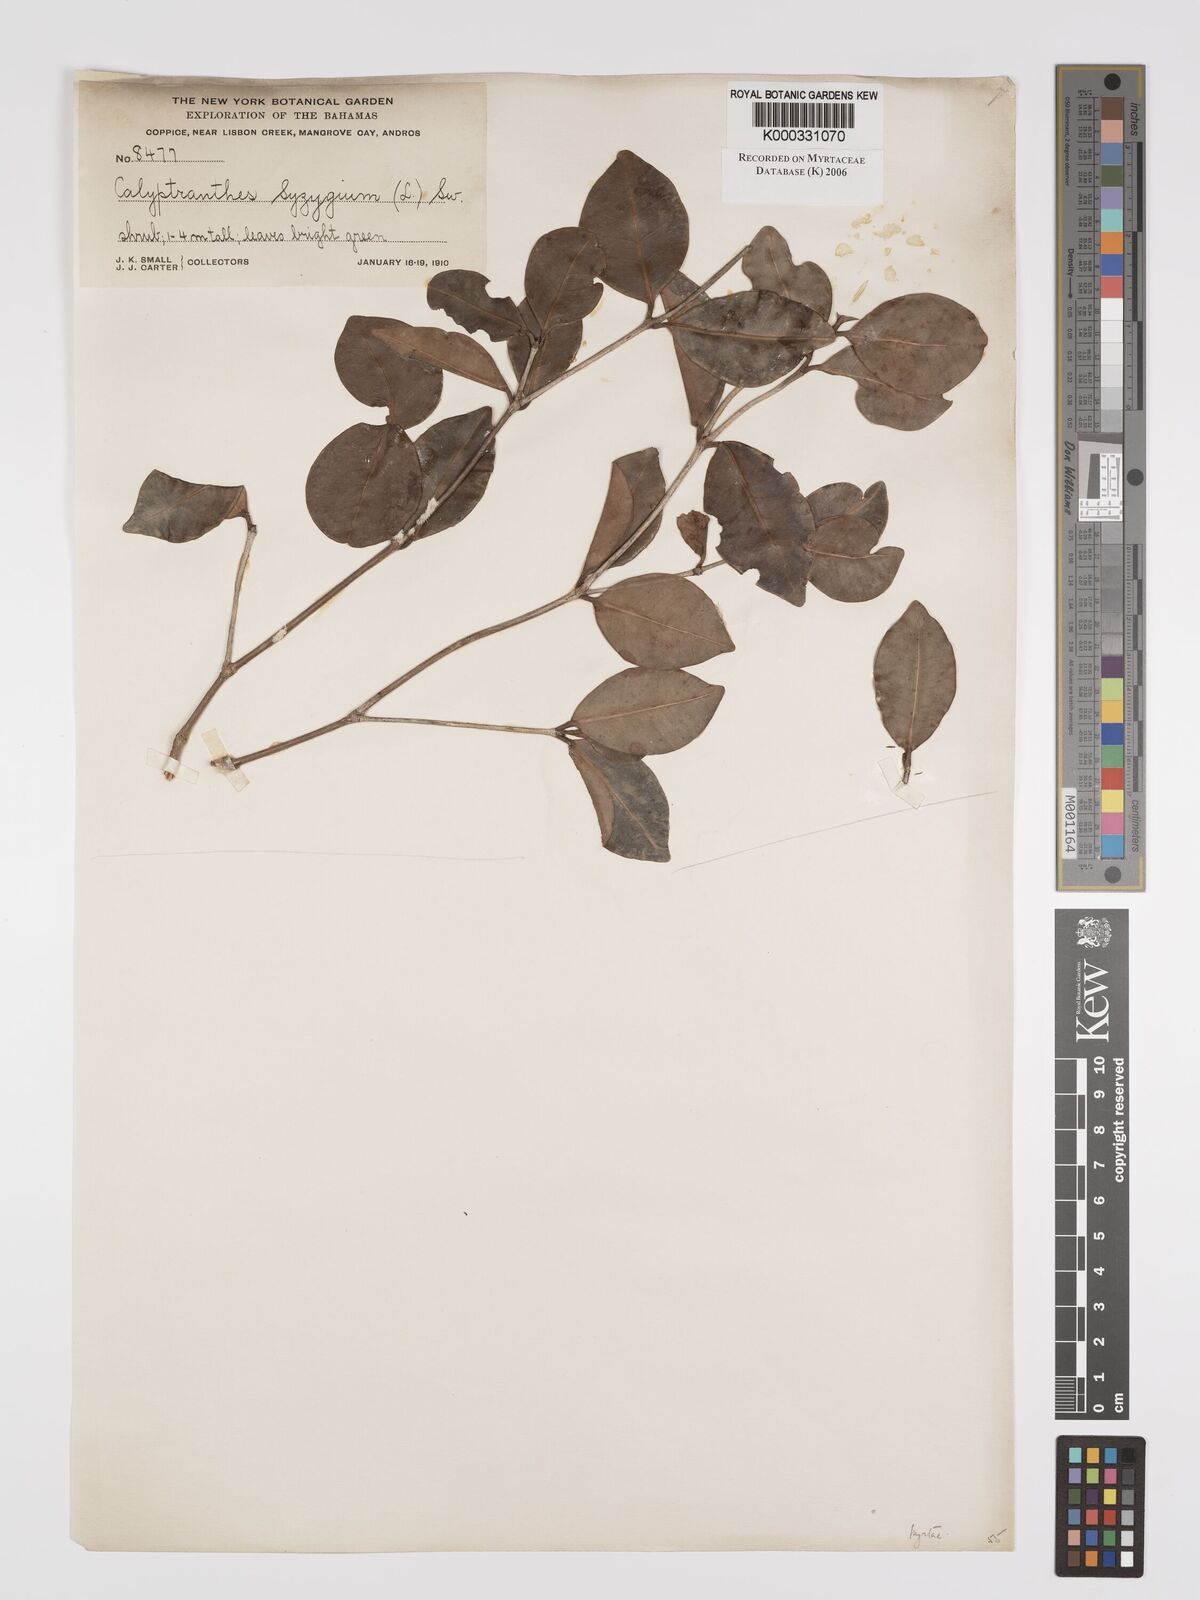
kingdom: Plantae
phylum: Tracheophyta
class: Magnoliopsida
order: Myrtales
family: Myrtaceae
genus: Myrcia
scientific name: Myrcia chytraculia
